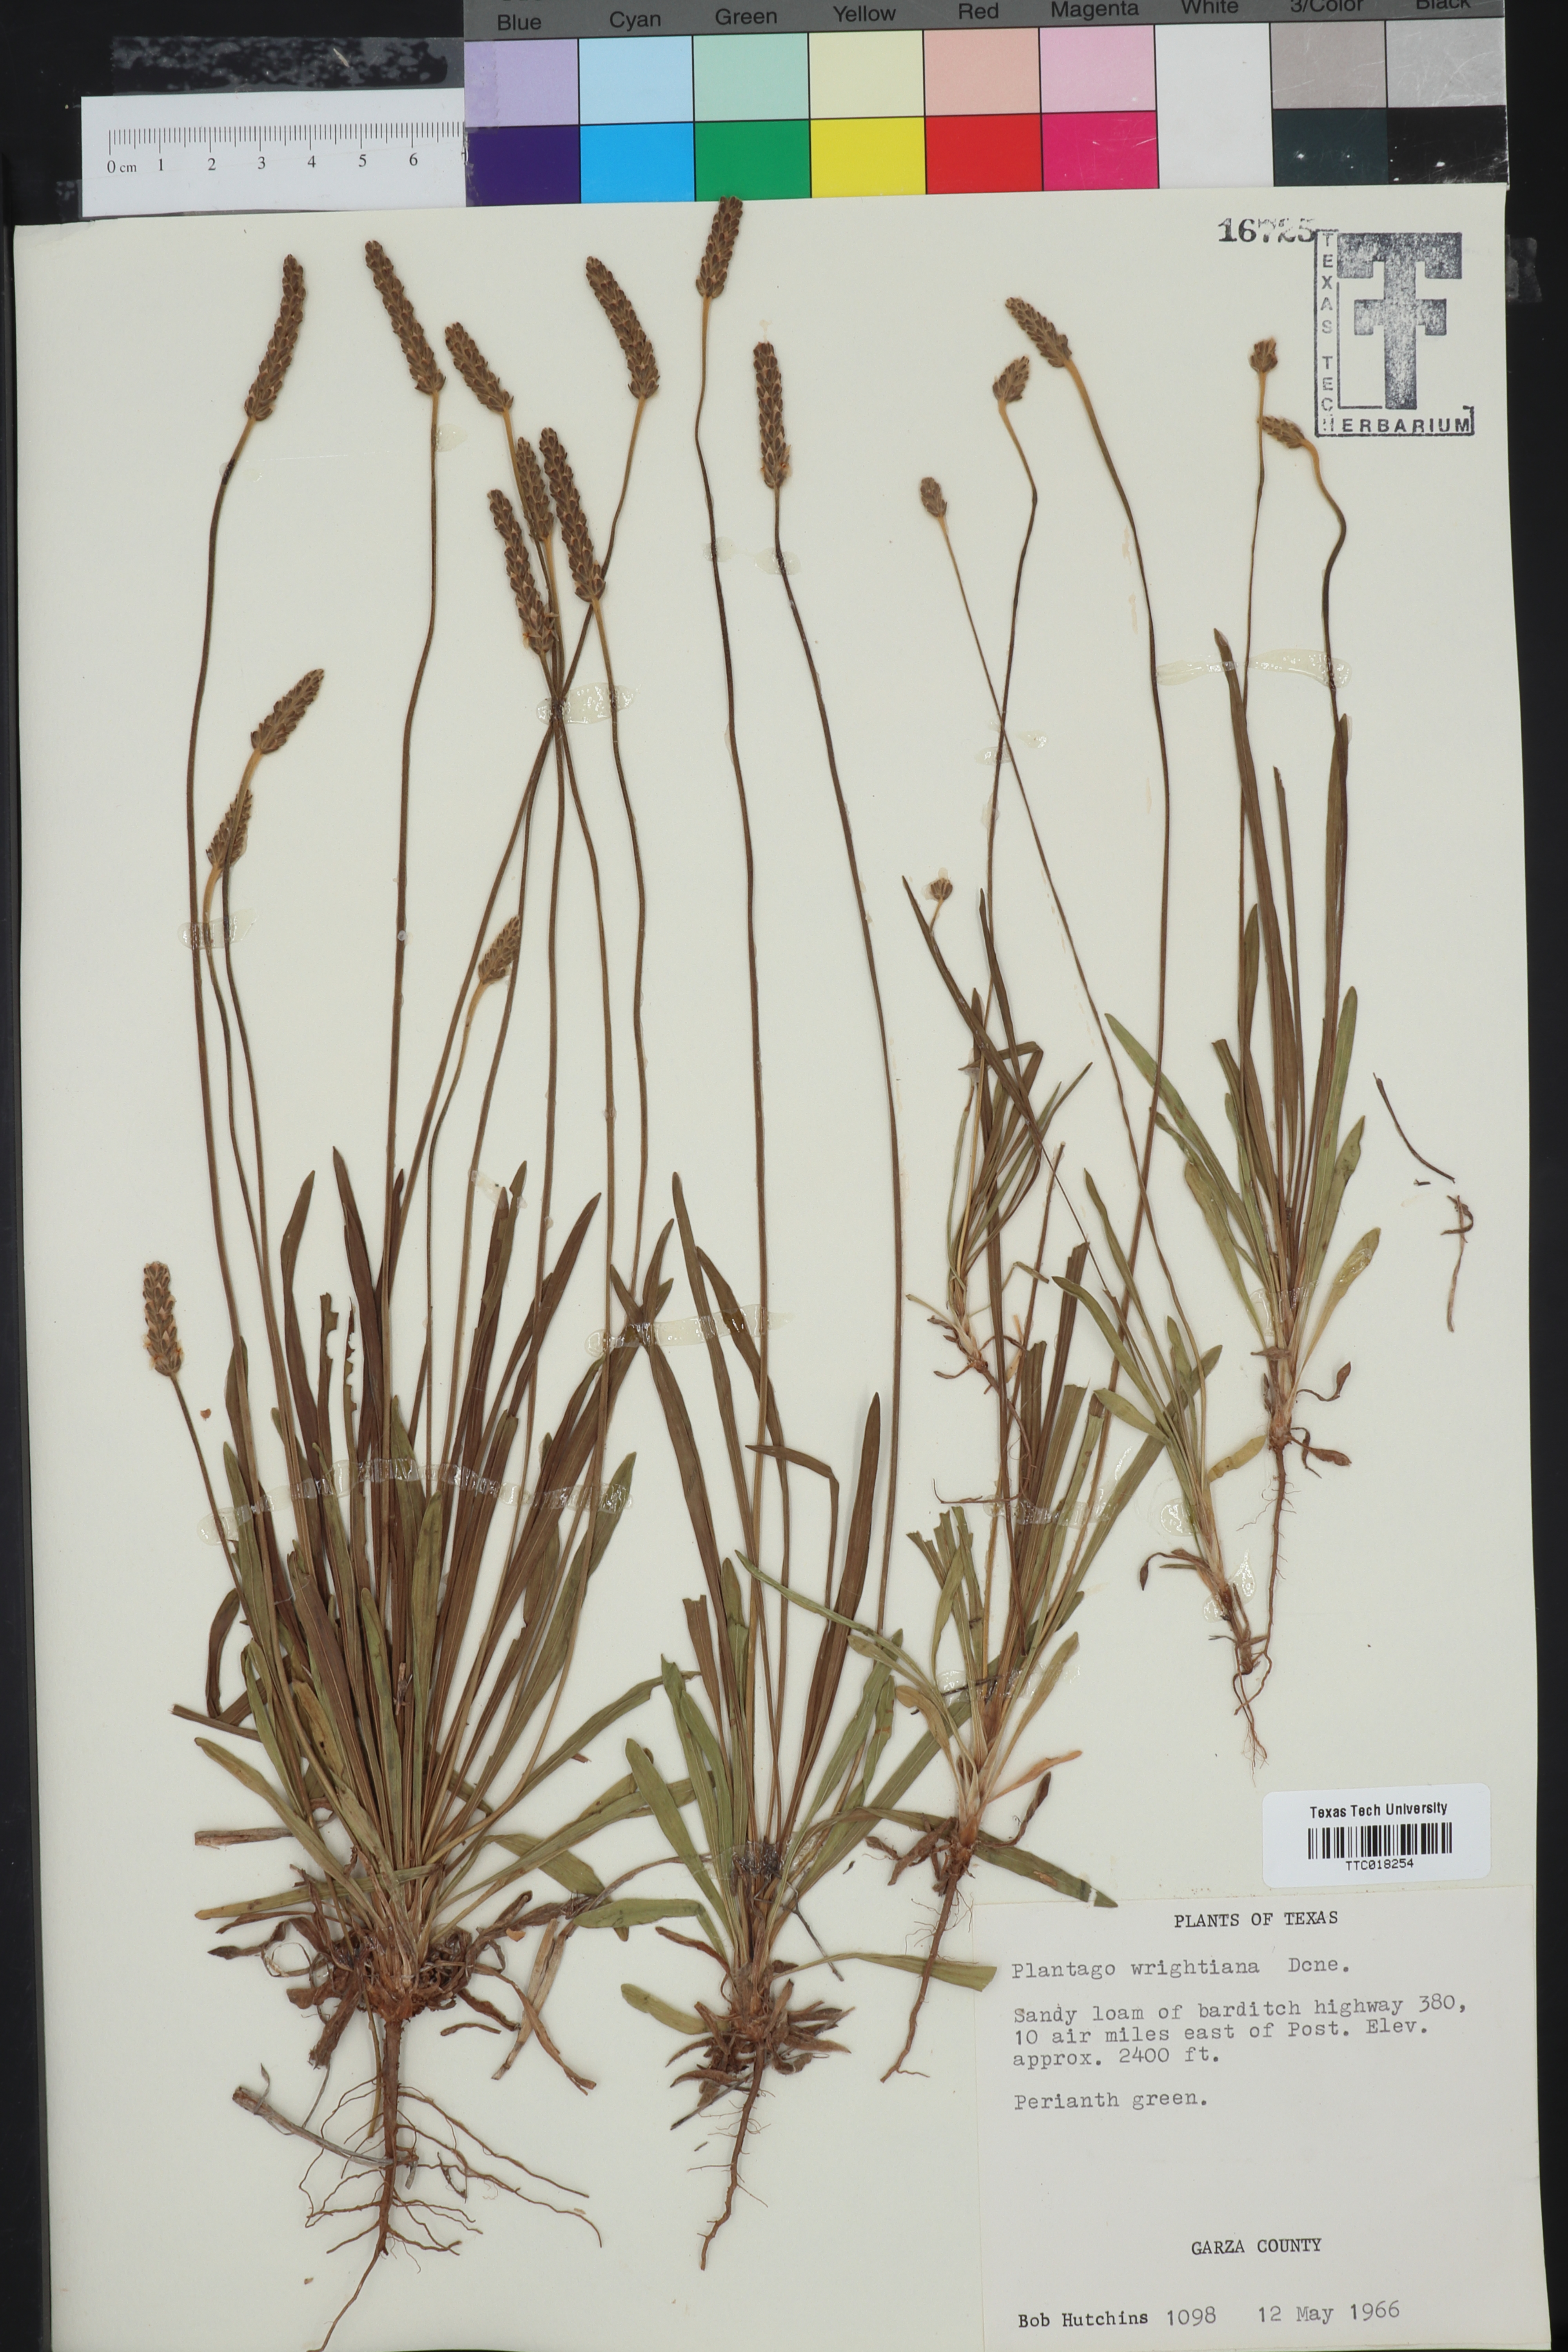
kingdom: Plantae
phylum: Tracheophyta
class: Magnoliopsida
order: Lamiales
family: Plantaginaceae
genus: Plantago
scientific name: Plantago wrightiana
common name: Wright's plantain
